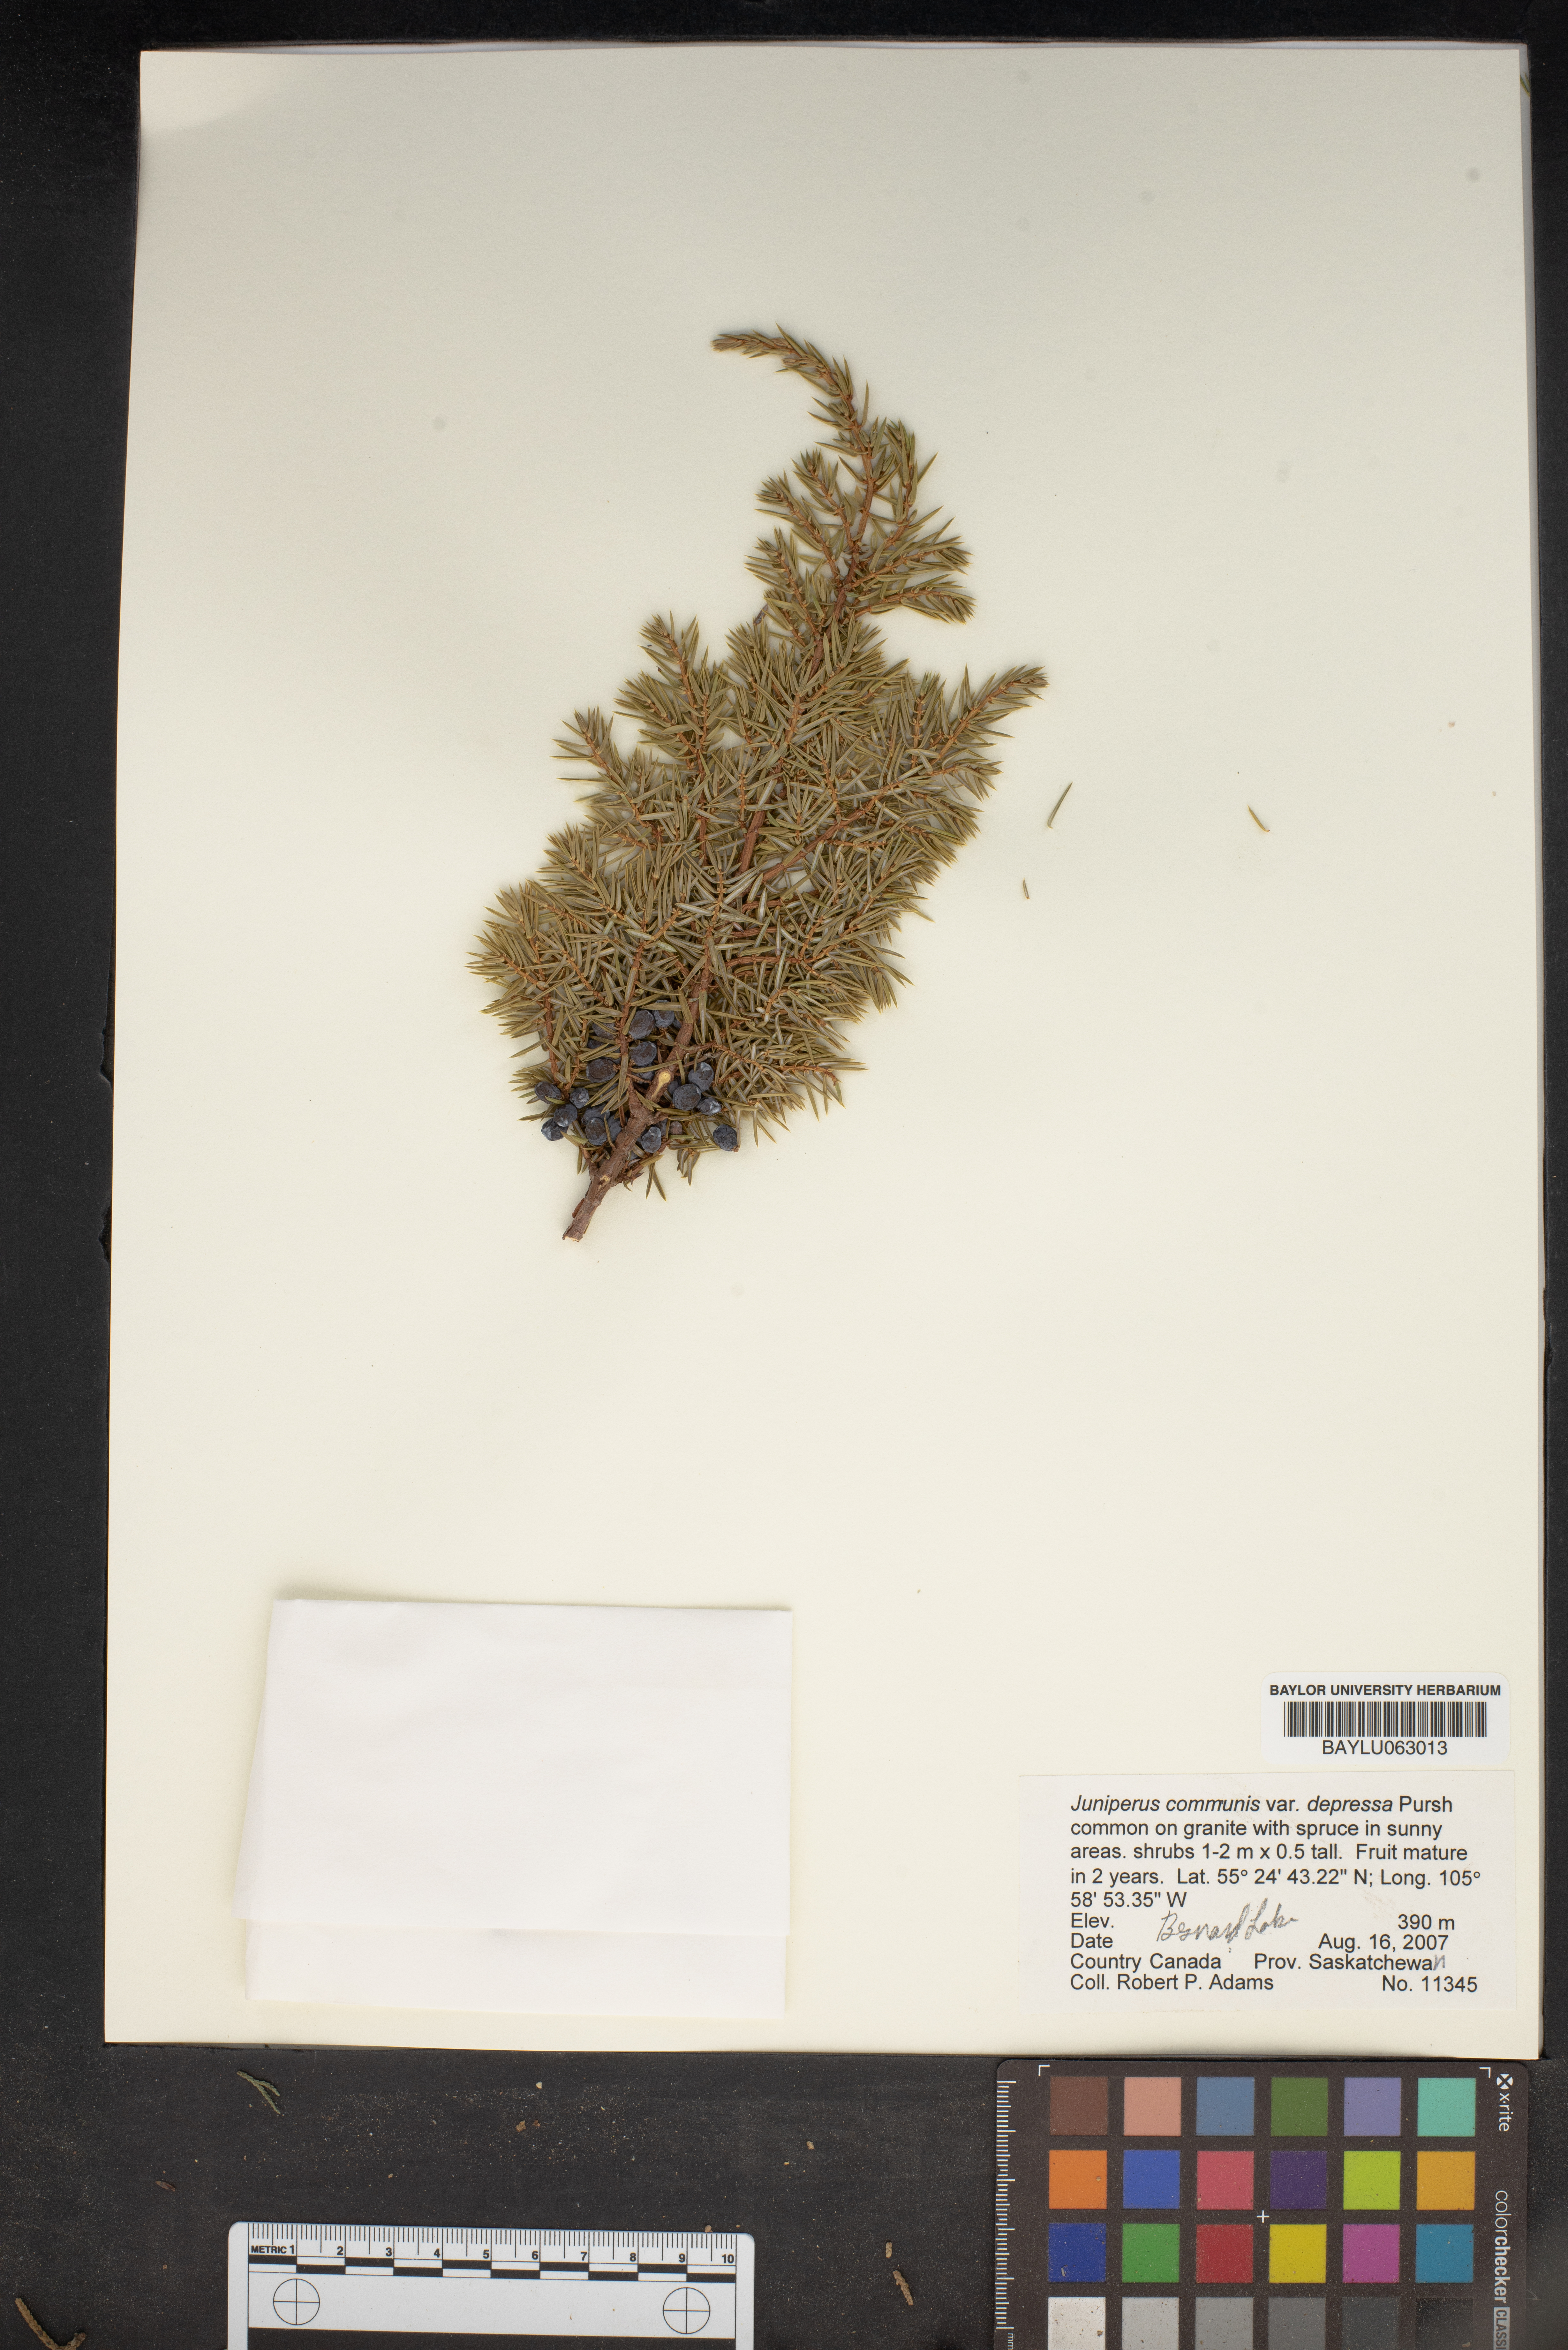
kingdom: Plantae
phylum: Tracheophyta
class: Pinopsida
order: Pinales
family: Cupressaceae
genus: Juniperus
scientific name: Juniperus communis
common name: Common juniper
